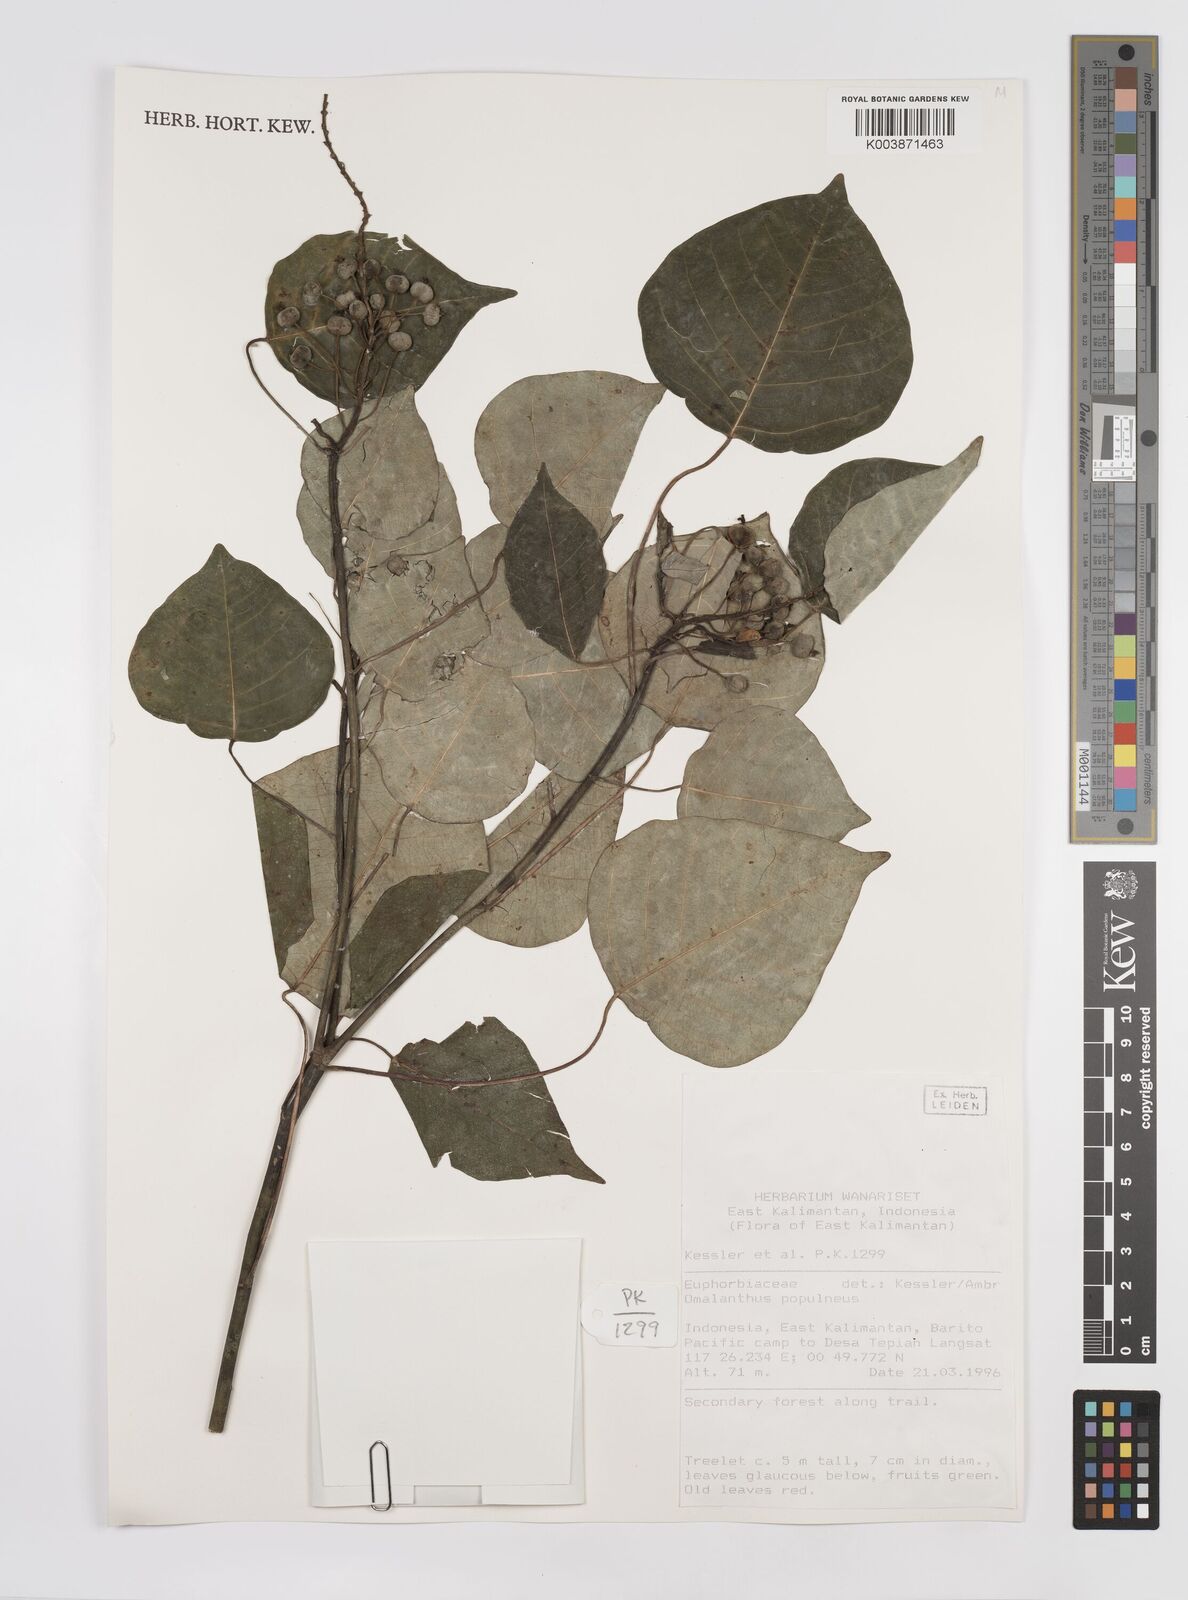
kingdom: Plantae
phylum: Tracheophyta
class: Magnoliopsida
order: Malpighiales
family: Euphorbiaceae
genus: Homalanthus
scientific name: Homalanthus populneus
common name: Spurge
